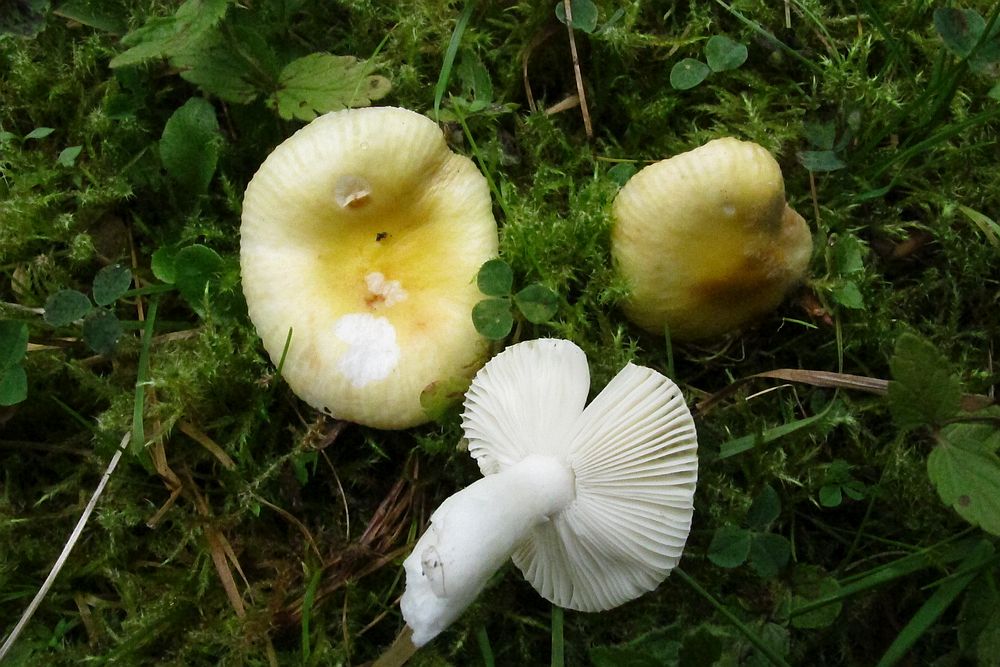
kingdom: Fungi
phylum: Basidiomycota
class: Agaricomycetes
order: Russulales
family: Russulaceae
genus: Russula
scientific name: Russula
